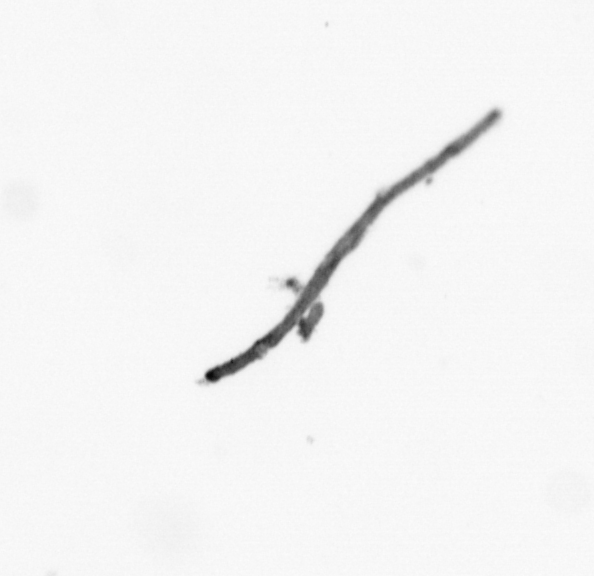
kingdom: Chromista
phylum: Ochrophyta
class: Bacillariophyceae
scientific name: Bacillariophyceae
